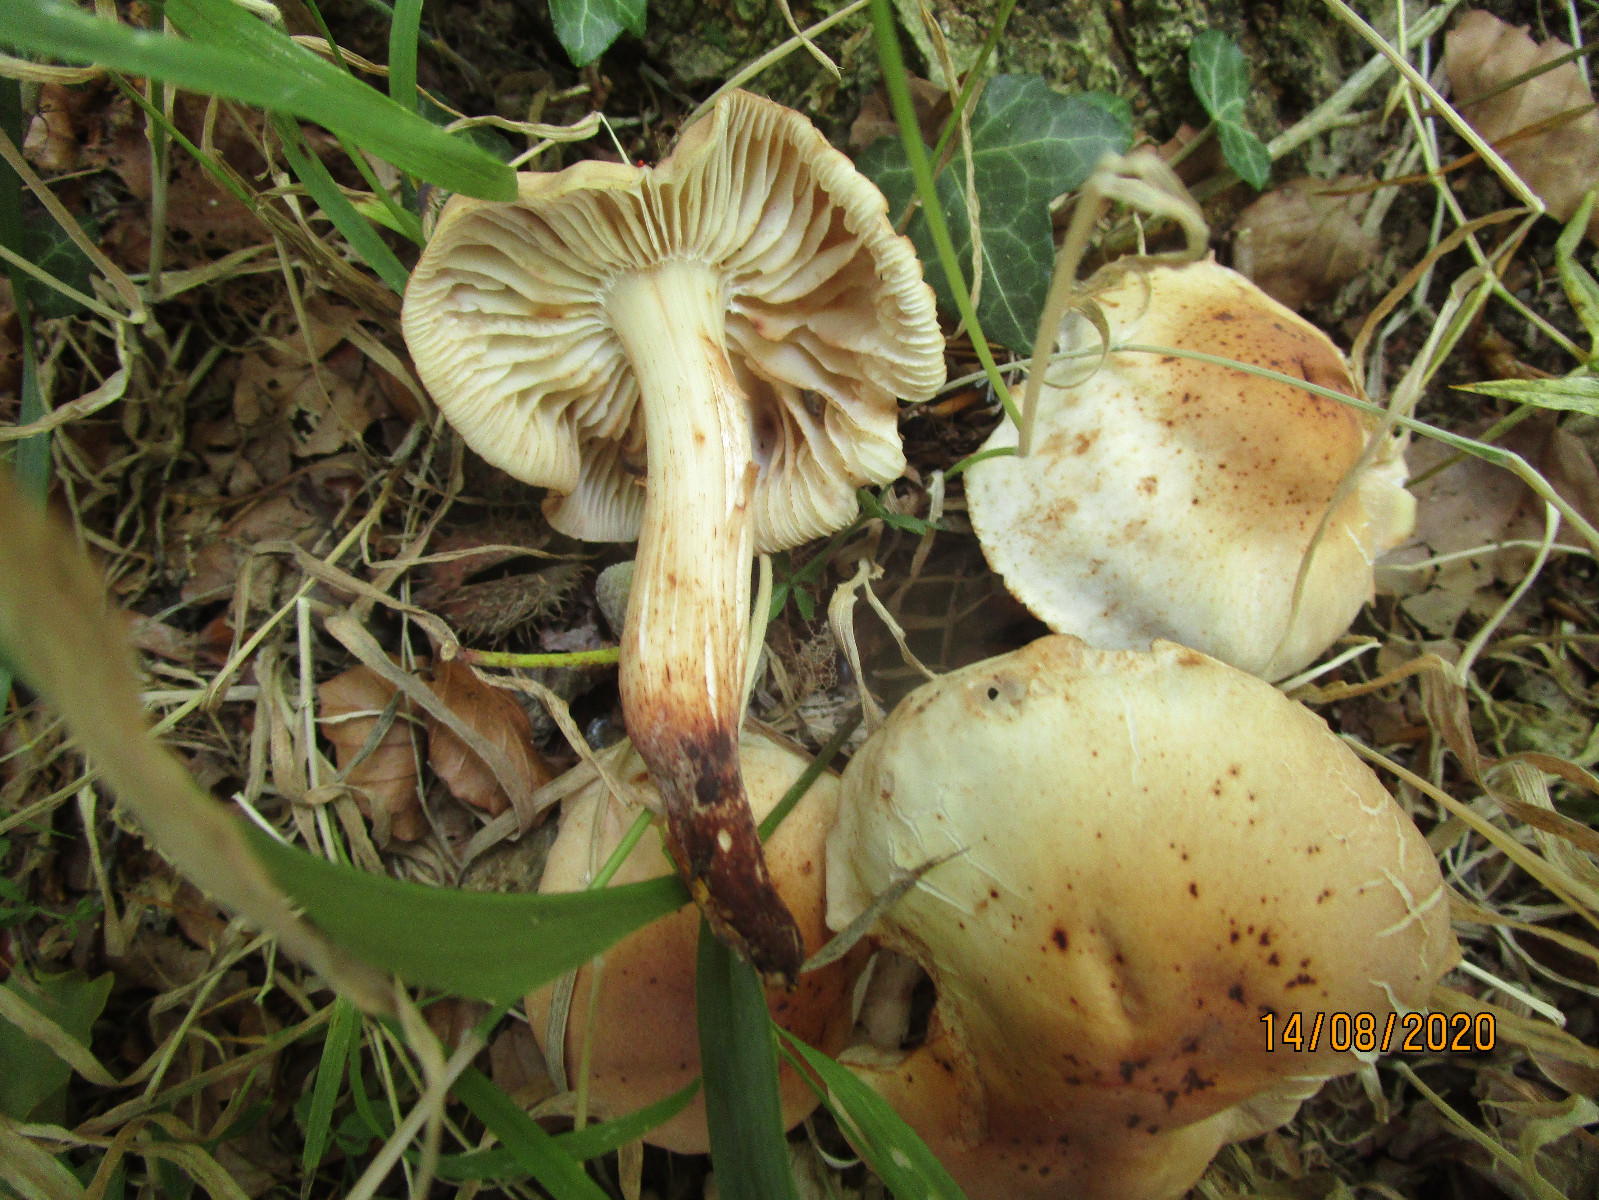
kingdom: Fungi
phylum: Basidiomycota
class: Agaricomycetes
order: Agaricales
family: Omphalotaceae
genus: Gymnopus
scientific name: Gymnopus fusipes
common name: tenstokket fladhat
